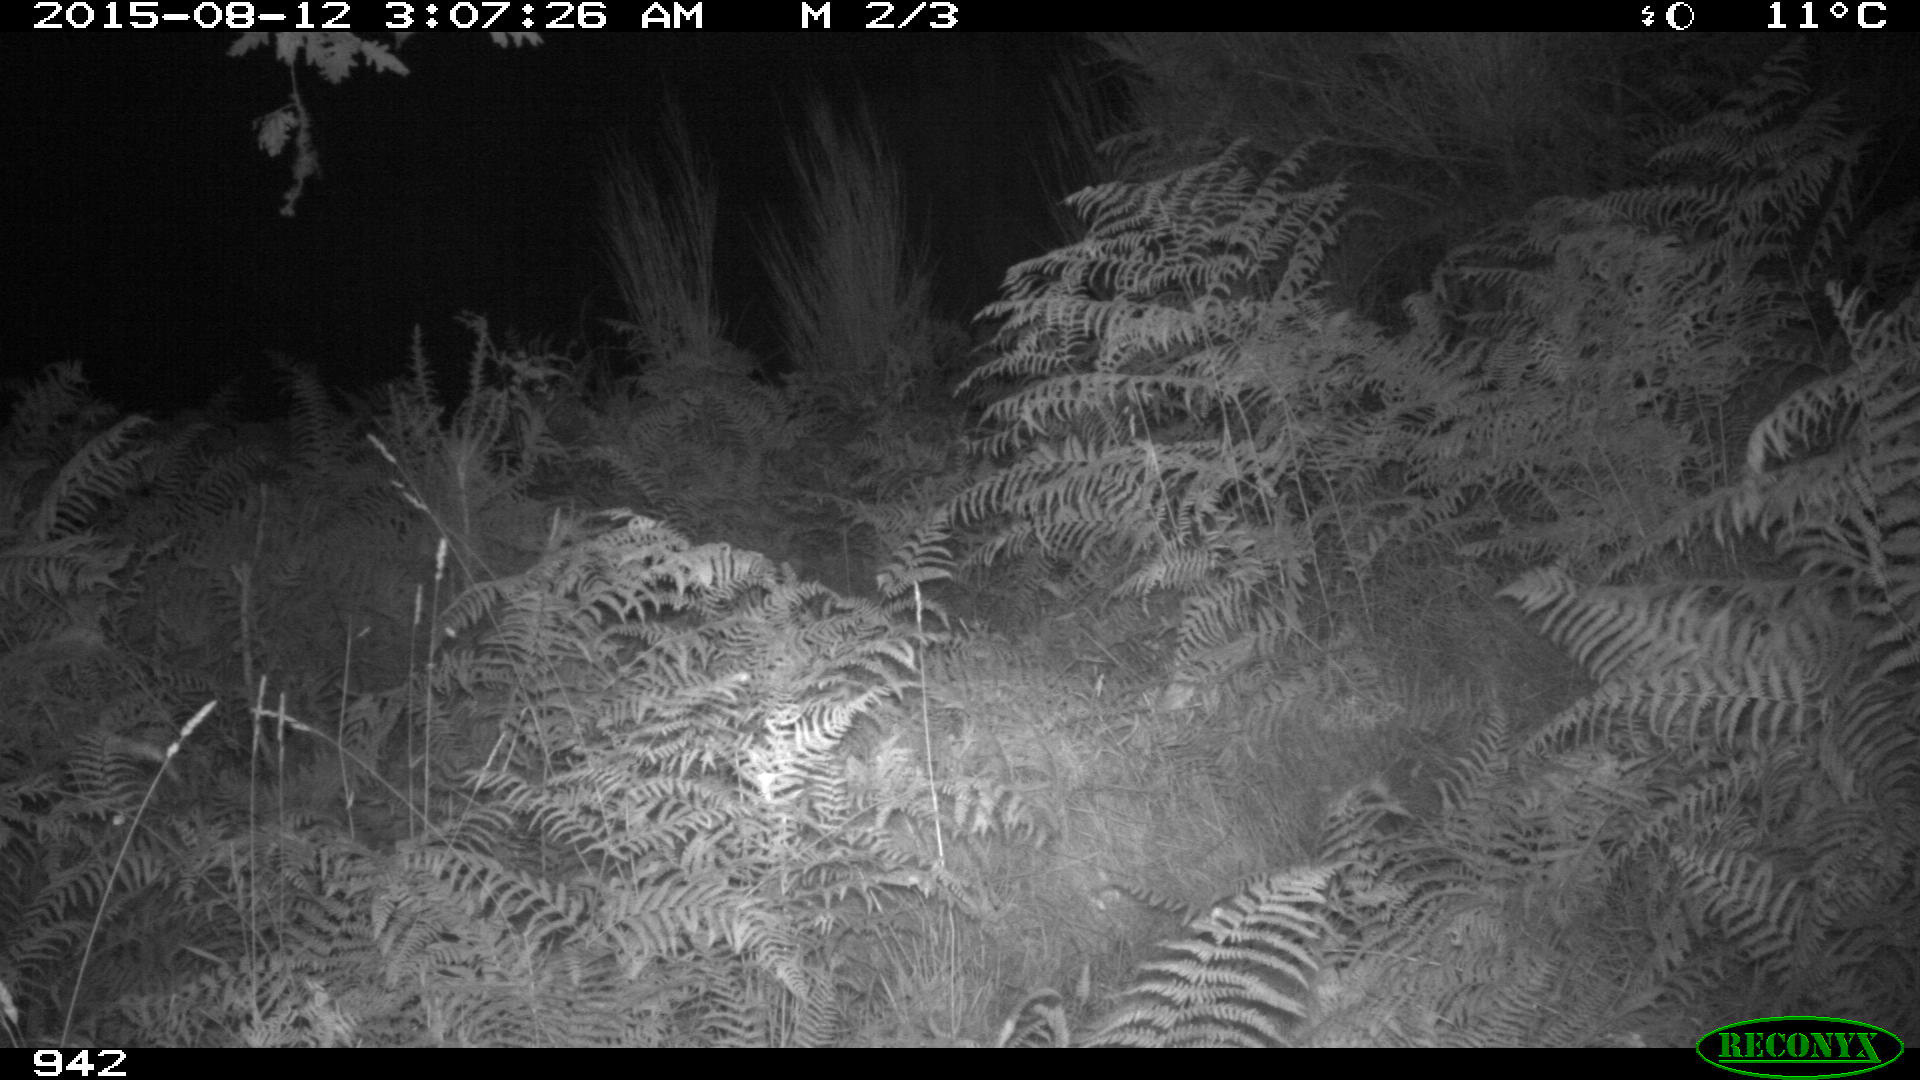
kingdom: Animalia
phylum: Chordata
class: Mammalia
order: Artiodactyla
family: Bovidae
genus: Bos
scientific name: Bos taurus
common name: Domesticated cattle
